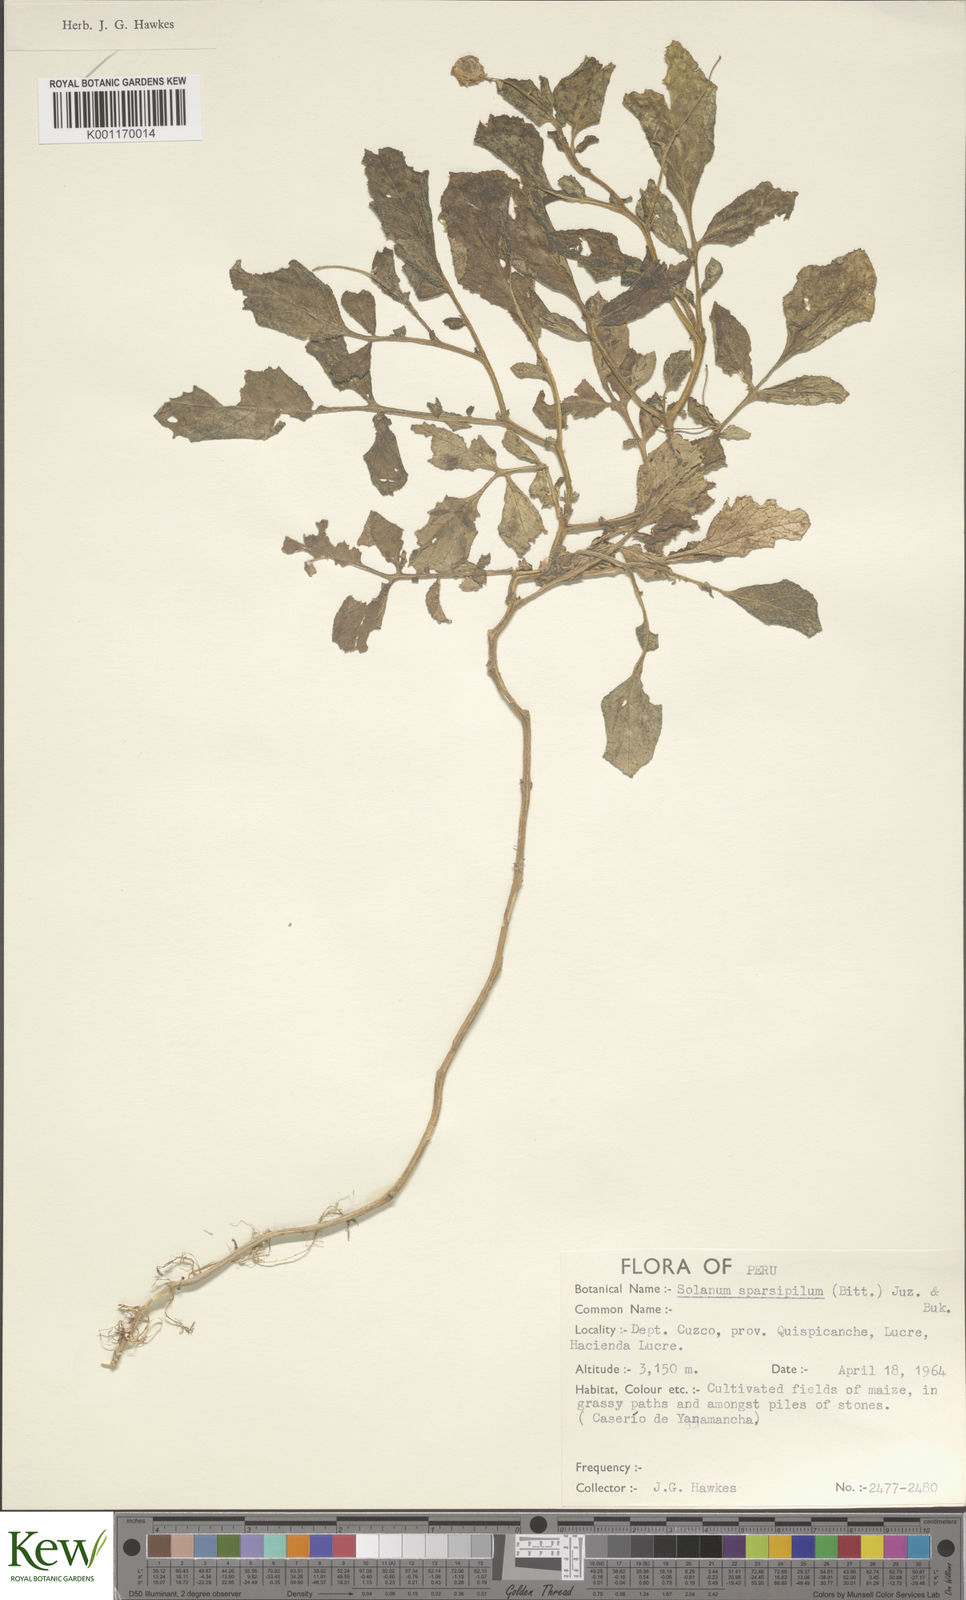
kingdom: Plantae
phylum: Tracheophyta
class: Magnoliopsida
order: Solanales
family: Solanaceae
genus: Solanum
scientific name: Solanum brevicaule
